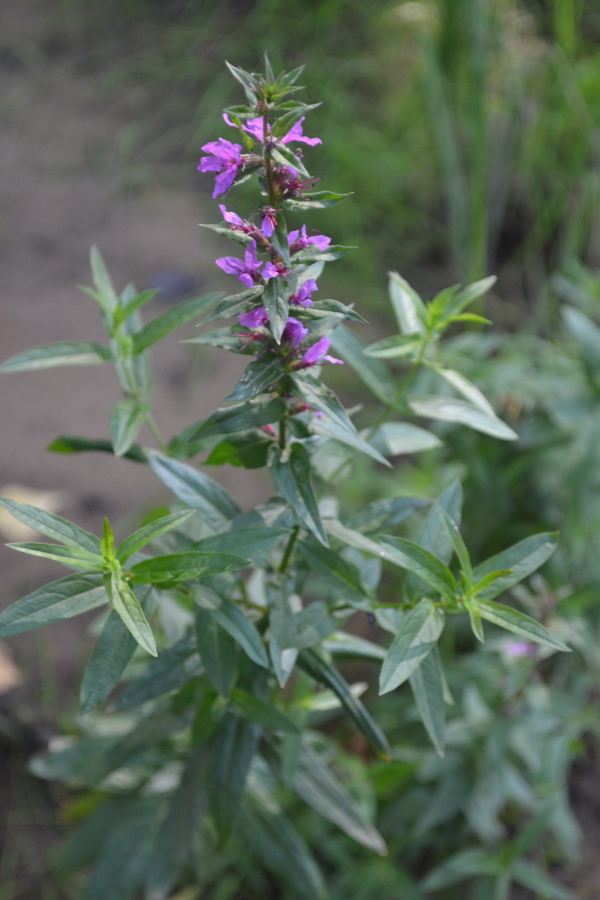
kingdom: Plantae
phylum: Tracheophyta
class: Magnoliopsida
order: Myrtales
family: Lythraceae
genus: Lythrum
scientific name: Lythrum salicaria
